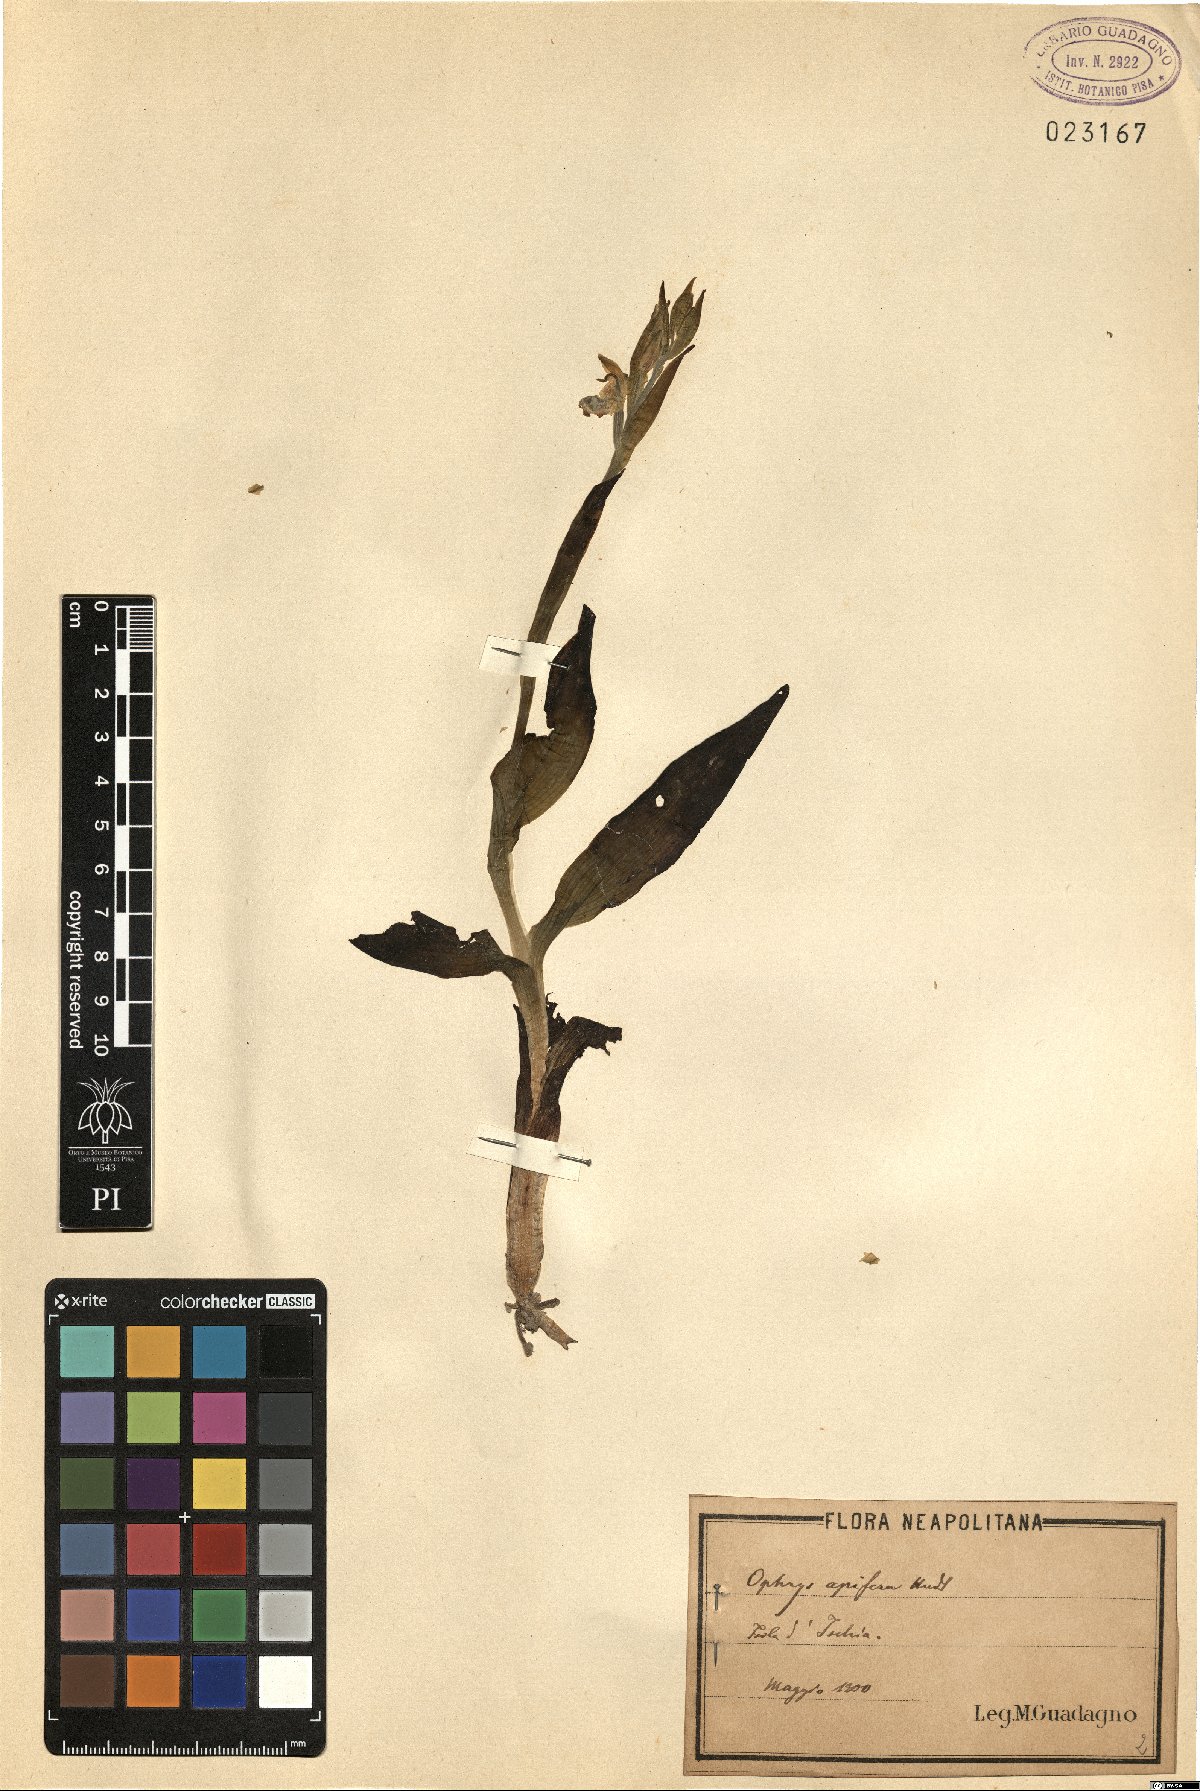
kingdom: Plantae
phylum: Tracheophyta
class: Liliopsida
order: Asparagales
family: Orchidaceae
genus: Ophrys
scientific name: Ophrys apifera
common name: Bee orchid
